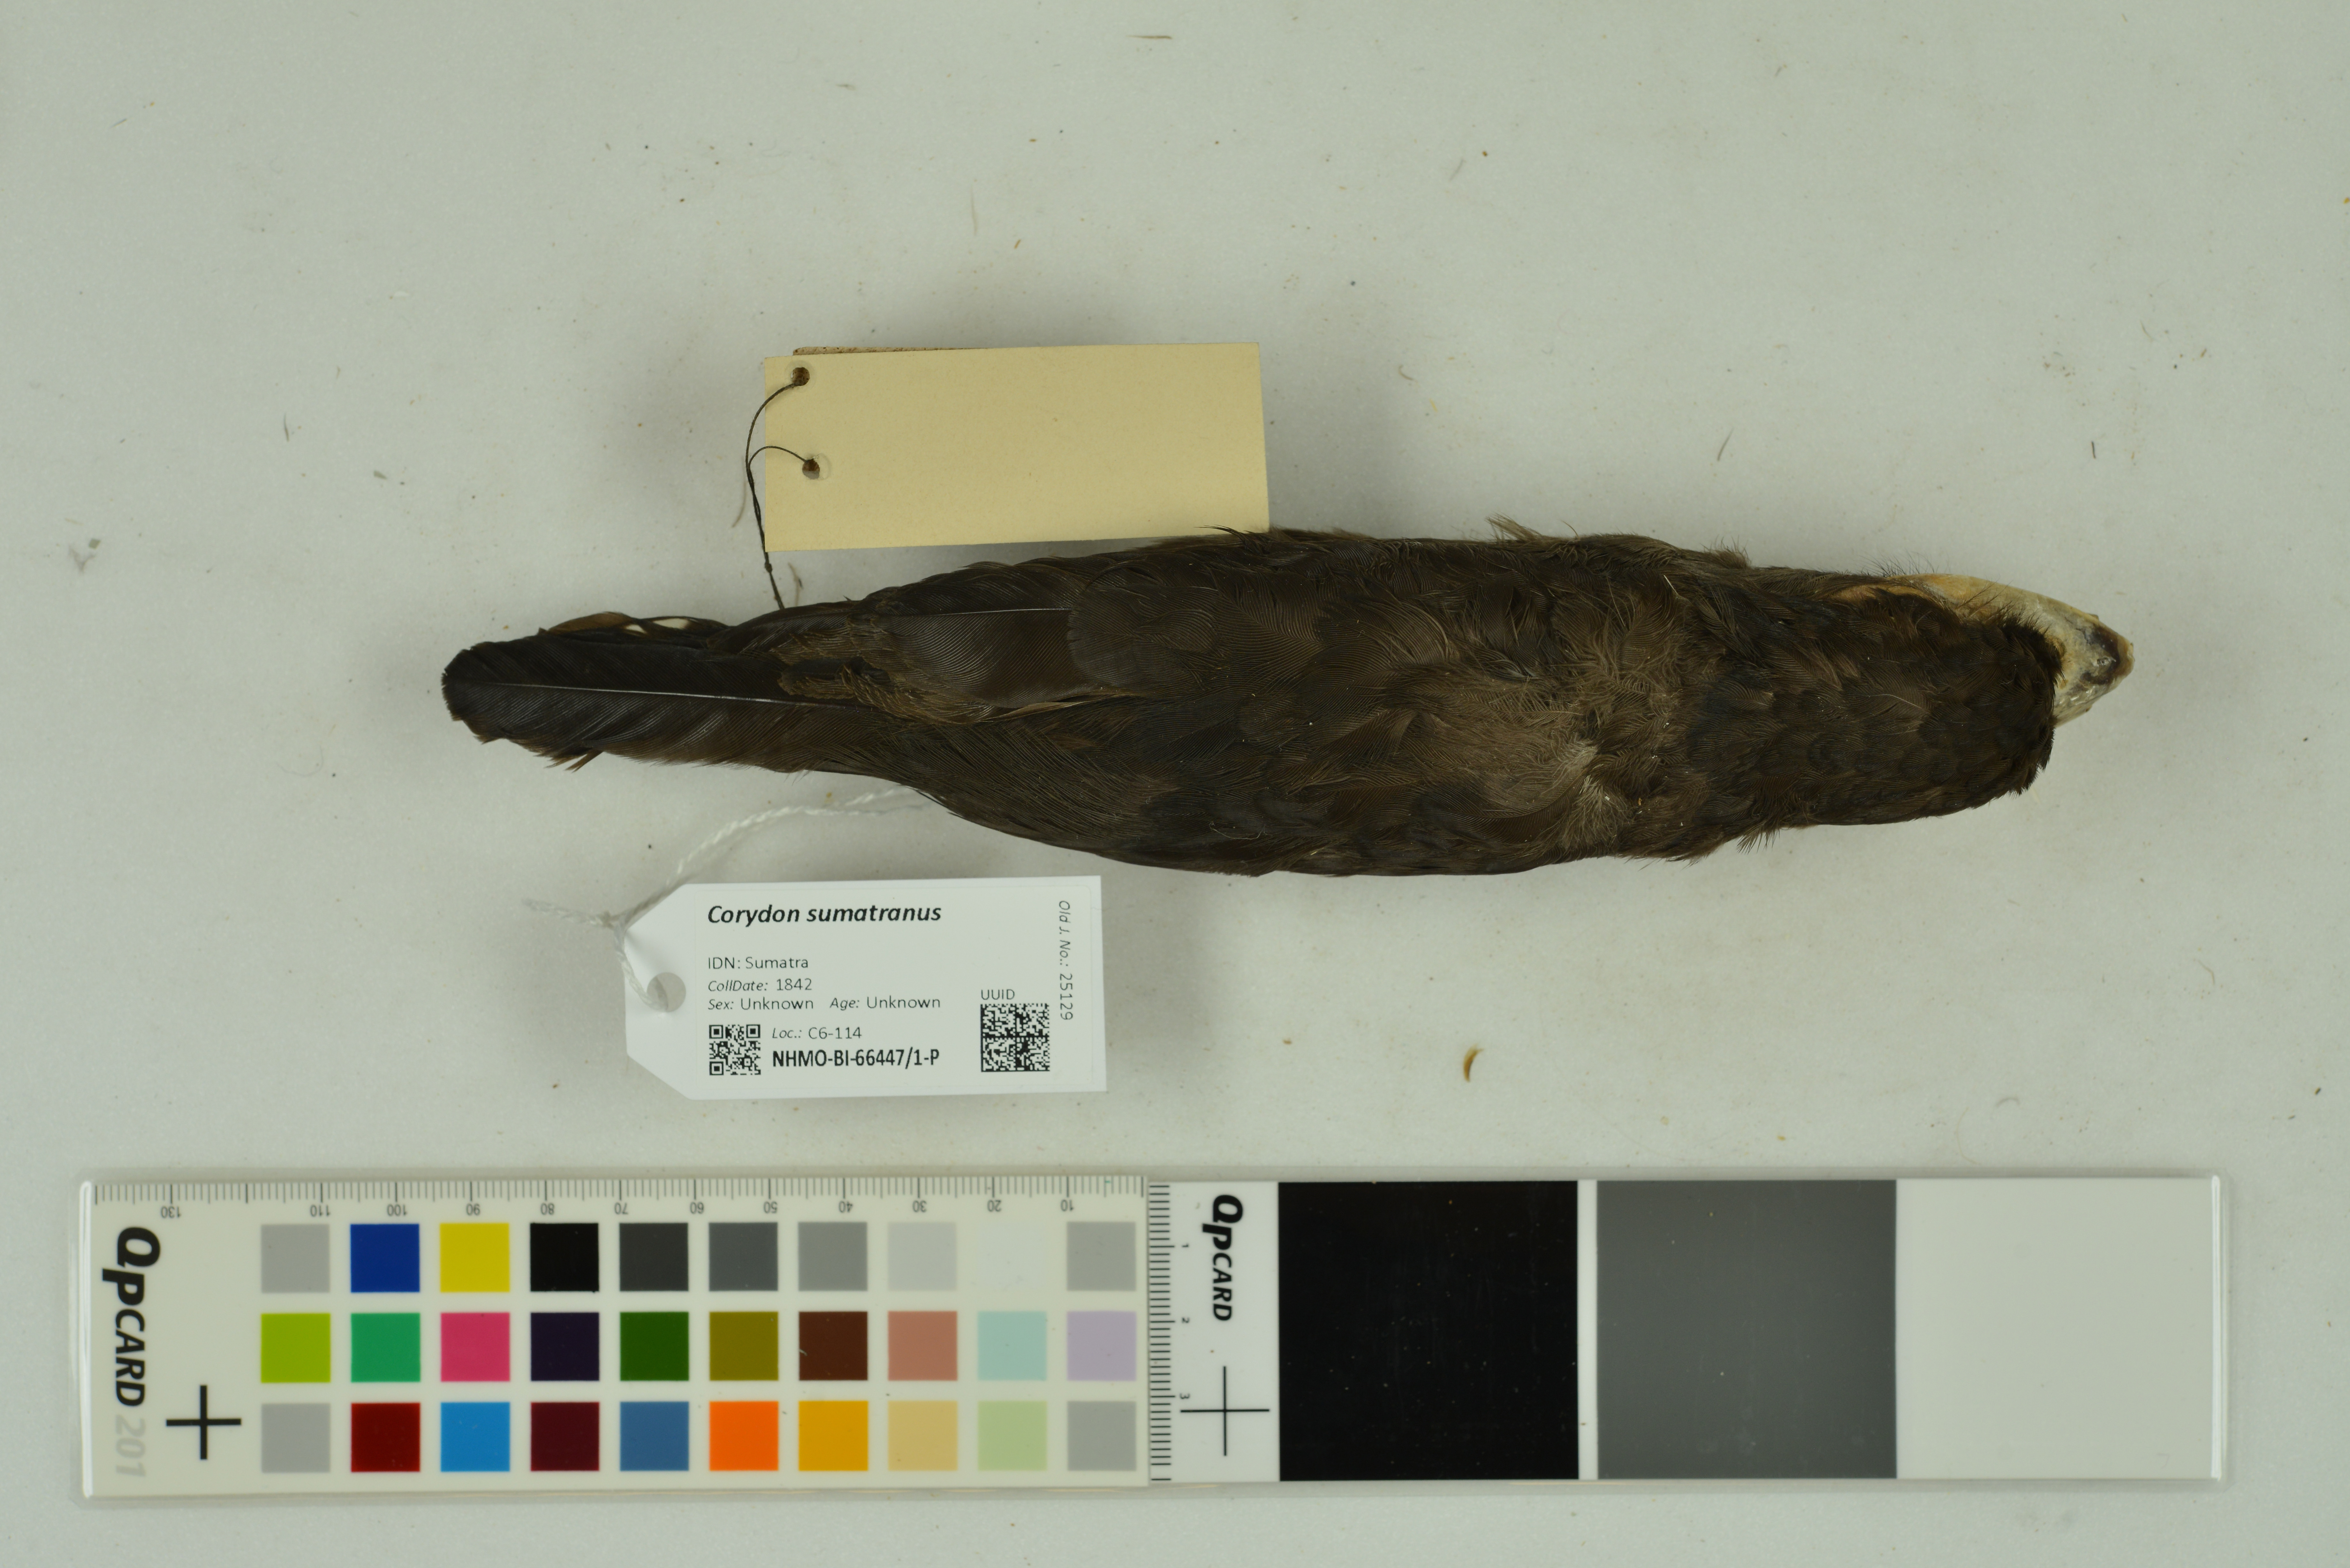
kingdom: Animalia
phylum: Chordata
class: Aves
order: Passeriformes
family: Eurylaimidae
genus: Corydon
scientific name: Corydon sumatranus
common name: Dusky broadbill
